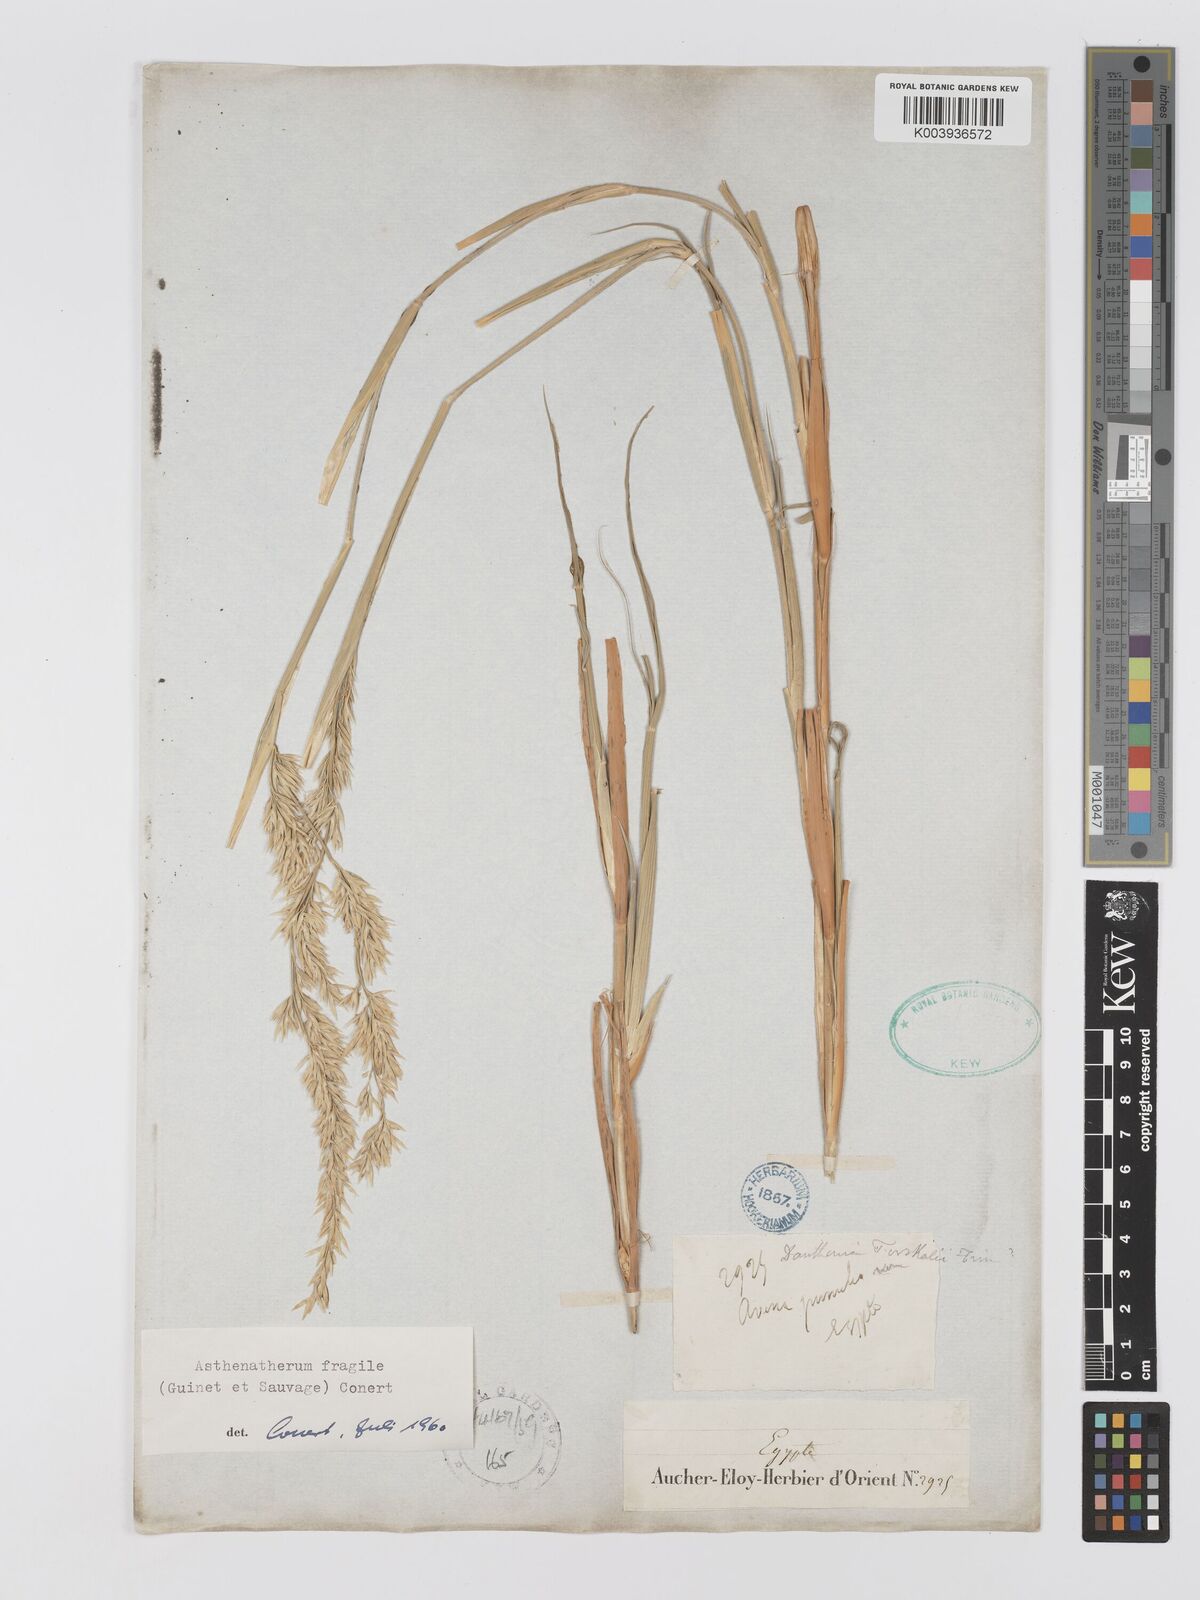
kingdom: Plantae
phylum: Tracheophyta
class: Liliopsida
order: Poales
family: Poaceae
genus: Centropodia
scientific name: Centropodia fragilis
